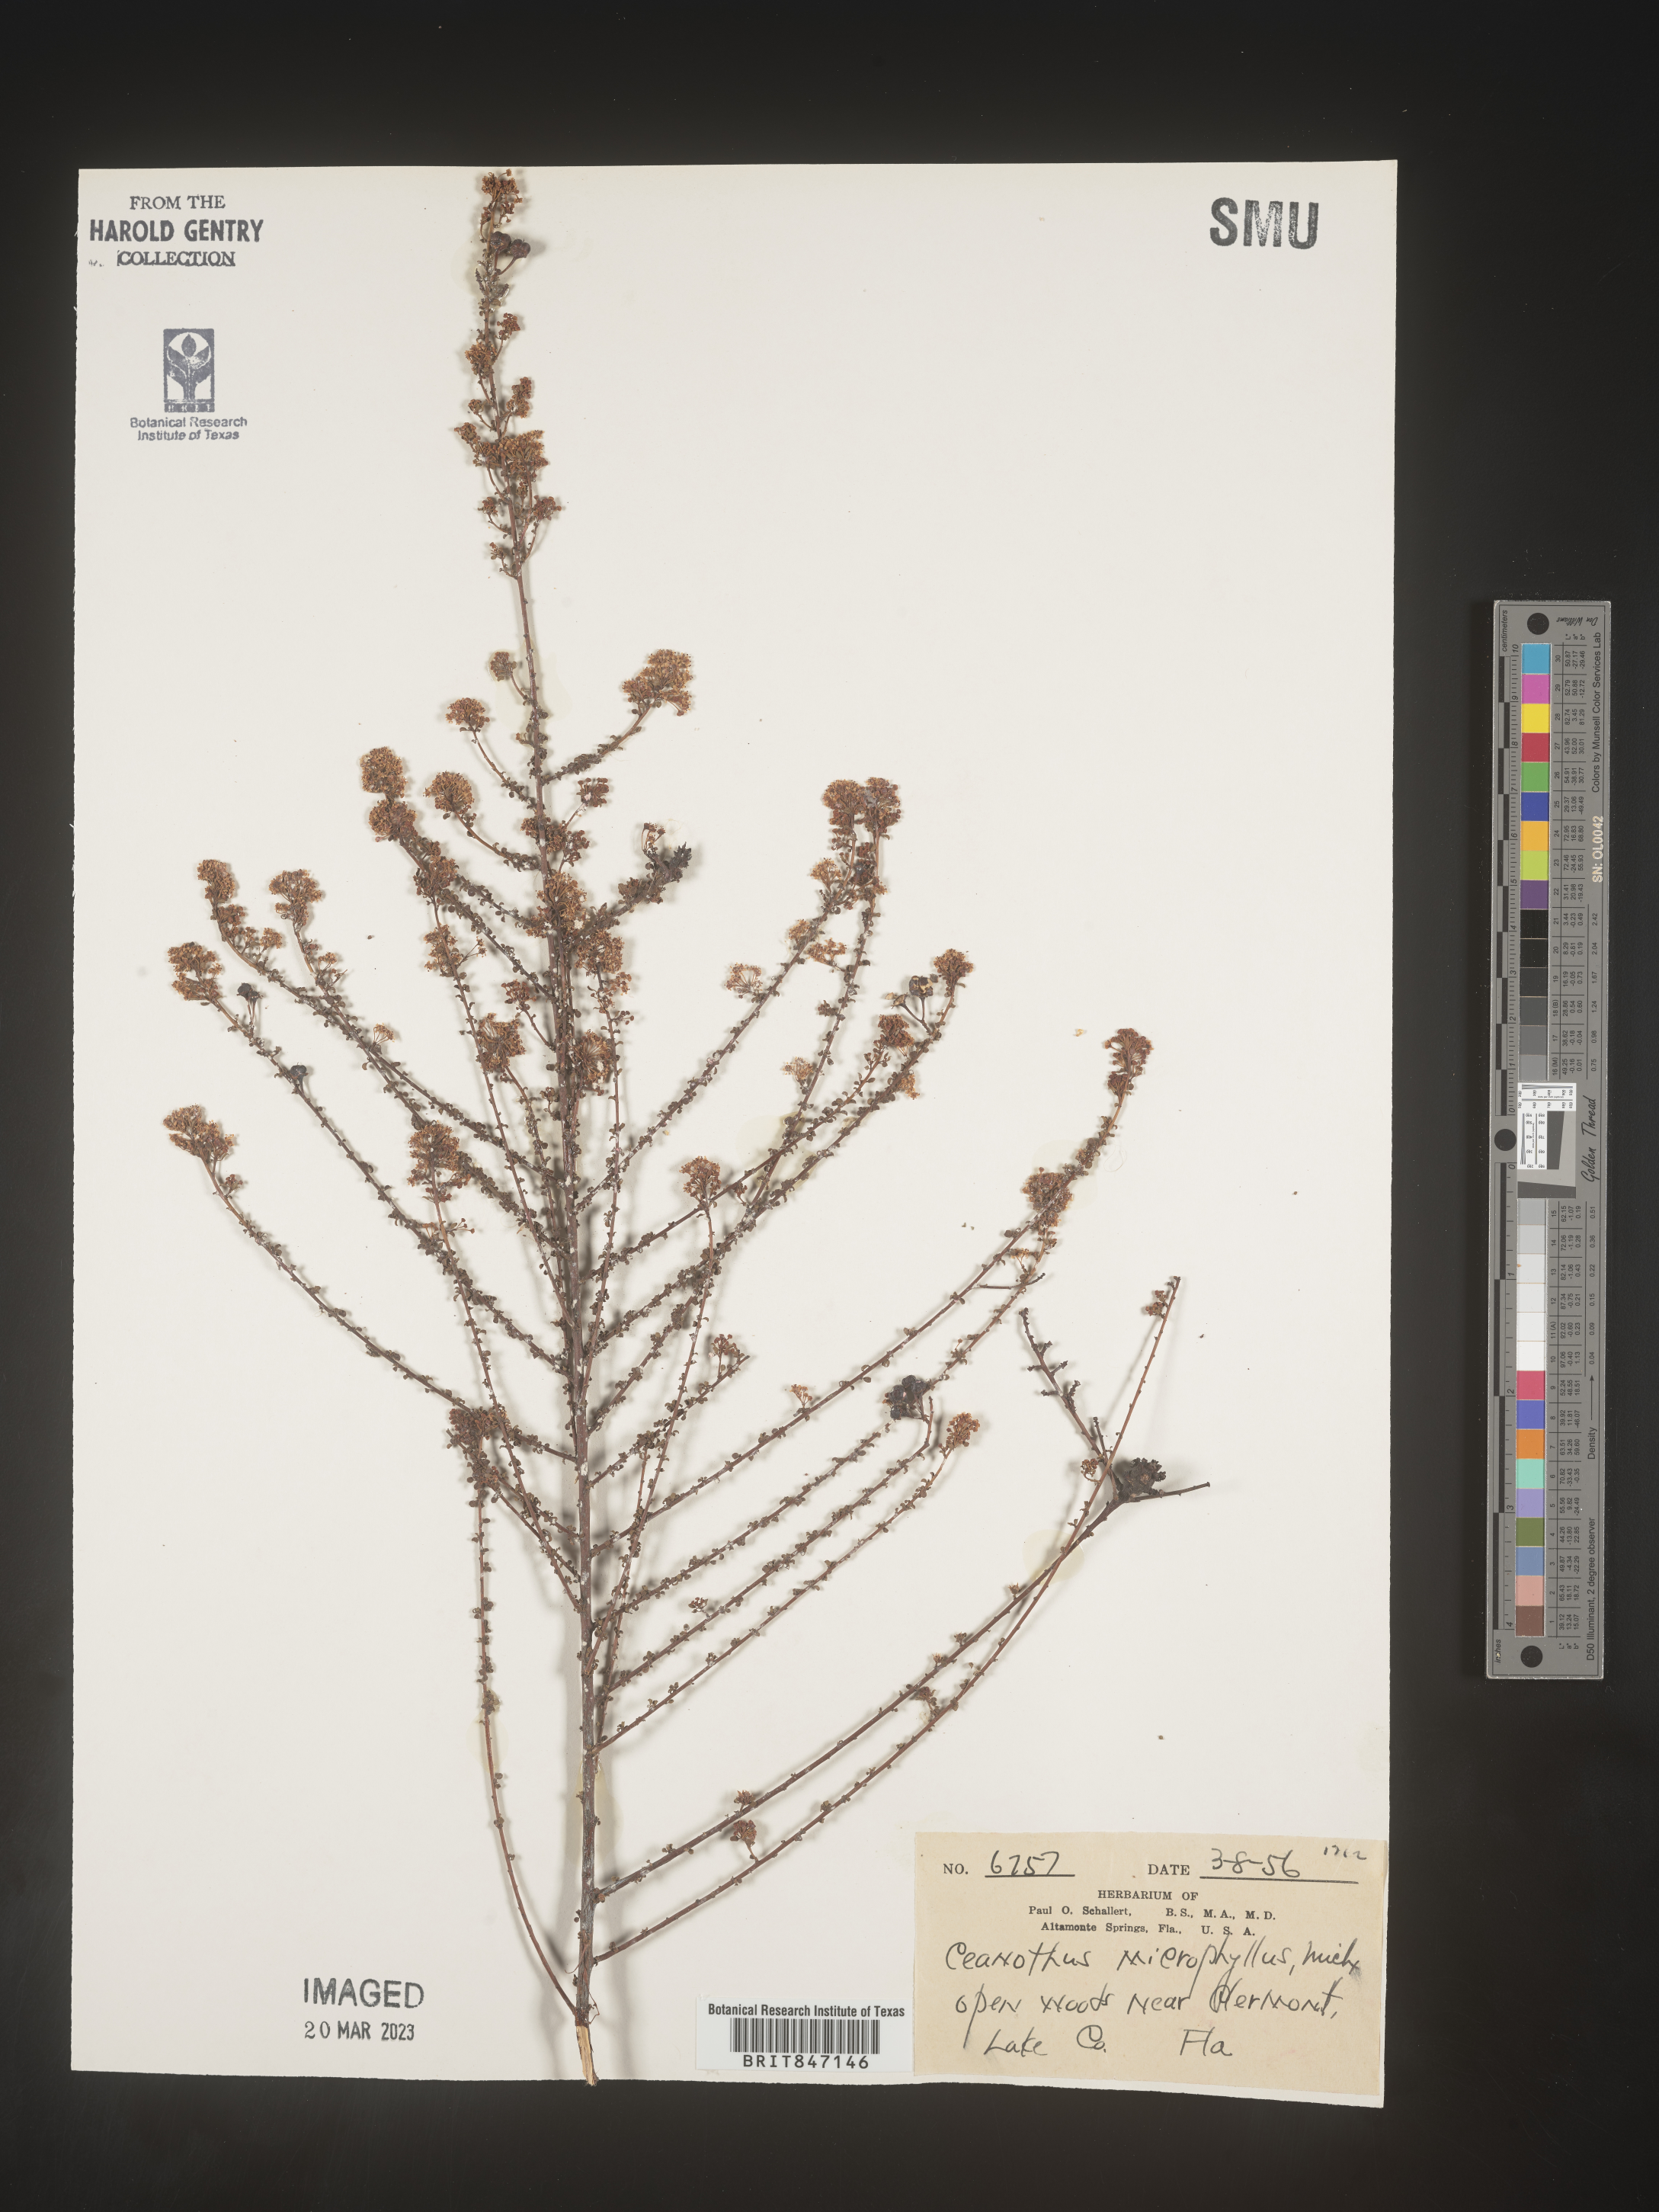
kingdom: Plantae
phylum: Tracheophyta
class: Magnoliopsida
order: Rosales
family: Rhamnaceae
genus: Ceanothus
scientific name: Ceanothus
